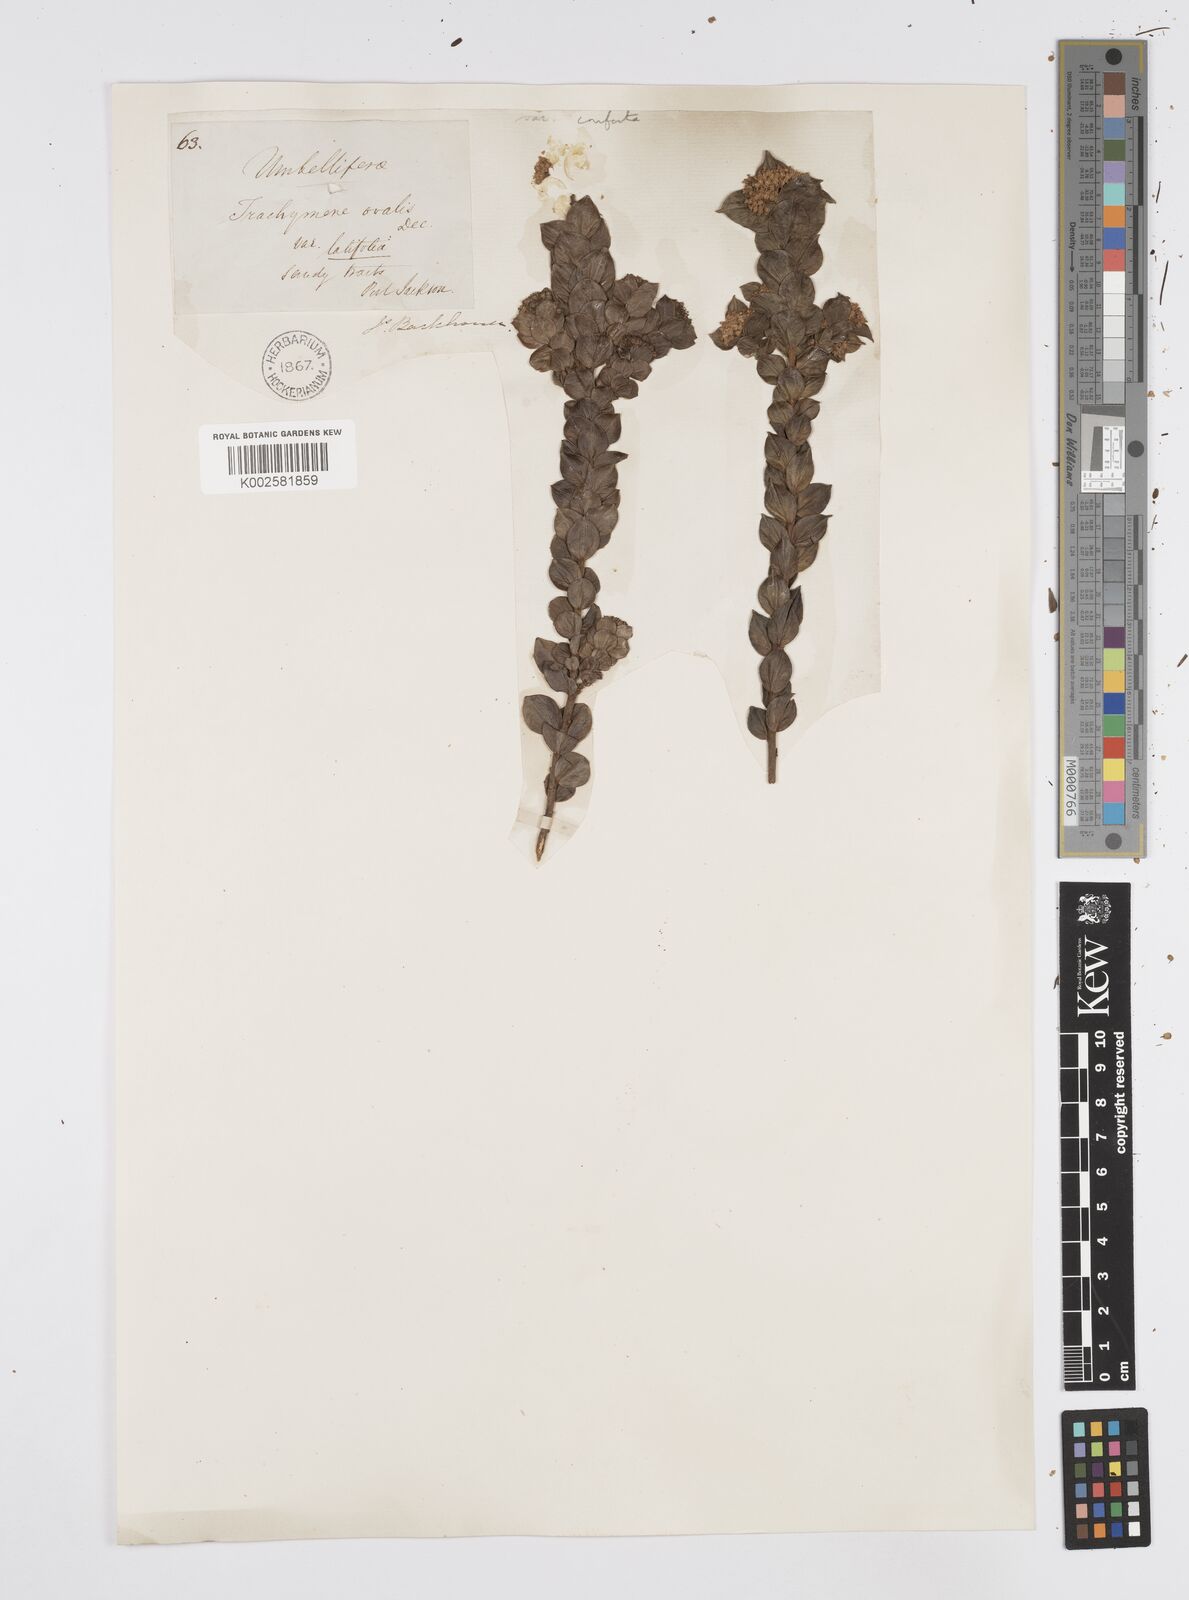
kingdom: Plantae
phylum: Tracheophyta
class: Magnoliopsida
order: Apiales
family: Apiaceae
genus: Platysace
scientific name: Platysace lanceolata
